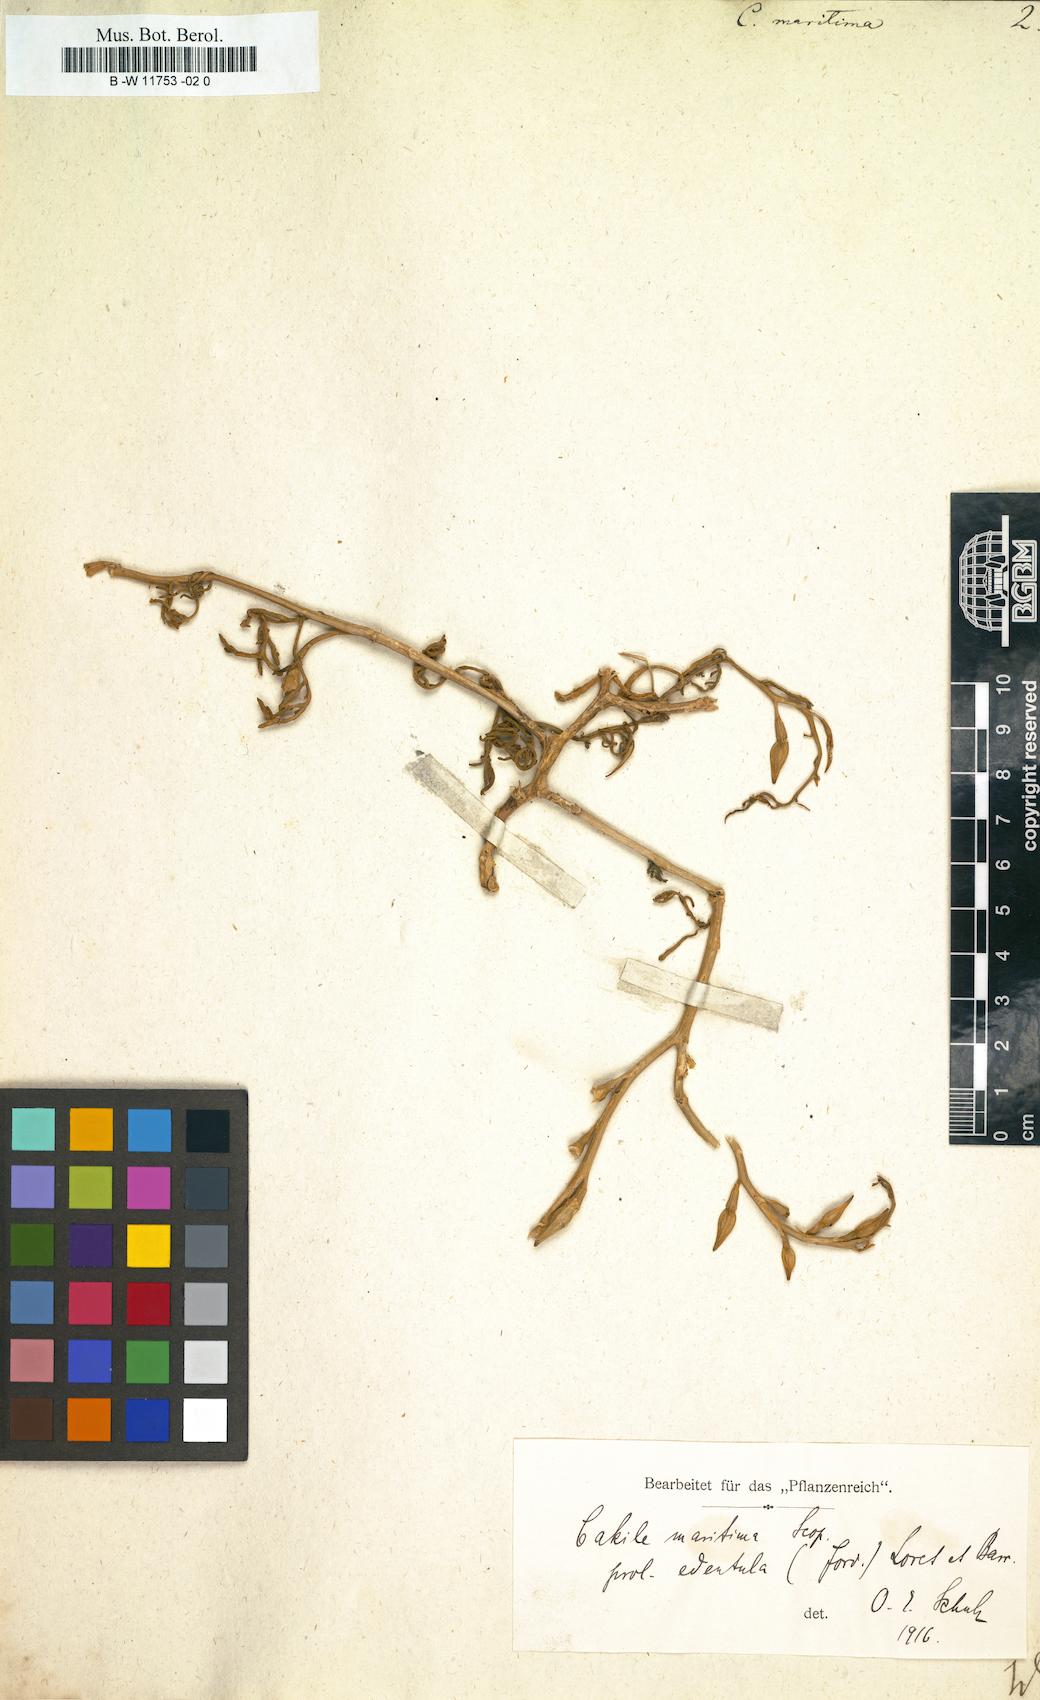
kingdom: Plantae
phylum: Tracheophyta
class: Magnoliopsida
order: Brassicales
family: Brassicaceae
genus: Cakile
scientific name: Cakile maritima
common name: Sea rocket
